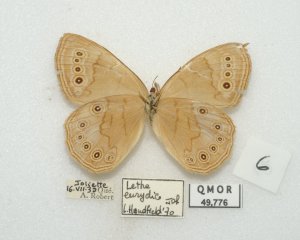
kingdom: Animalia
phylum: Arthropoda
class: Insecta
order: Lepidoptera
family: Nymphalidae
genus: Lethe
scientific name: Lethe eurydice
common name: Eyed Brown
